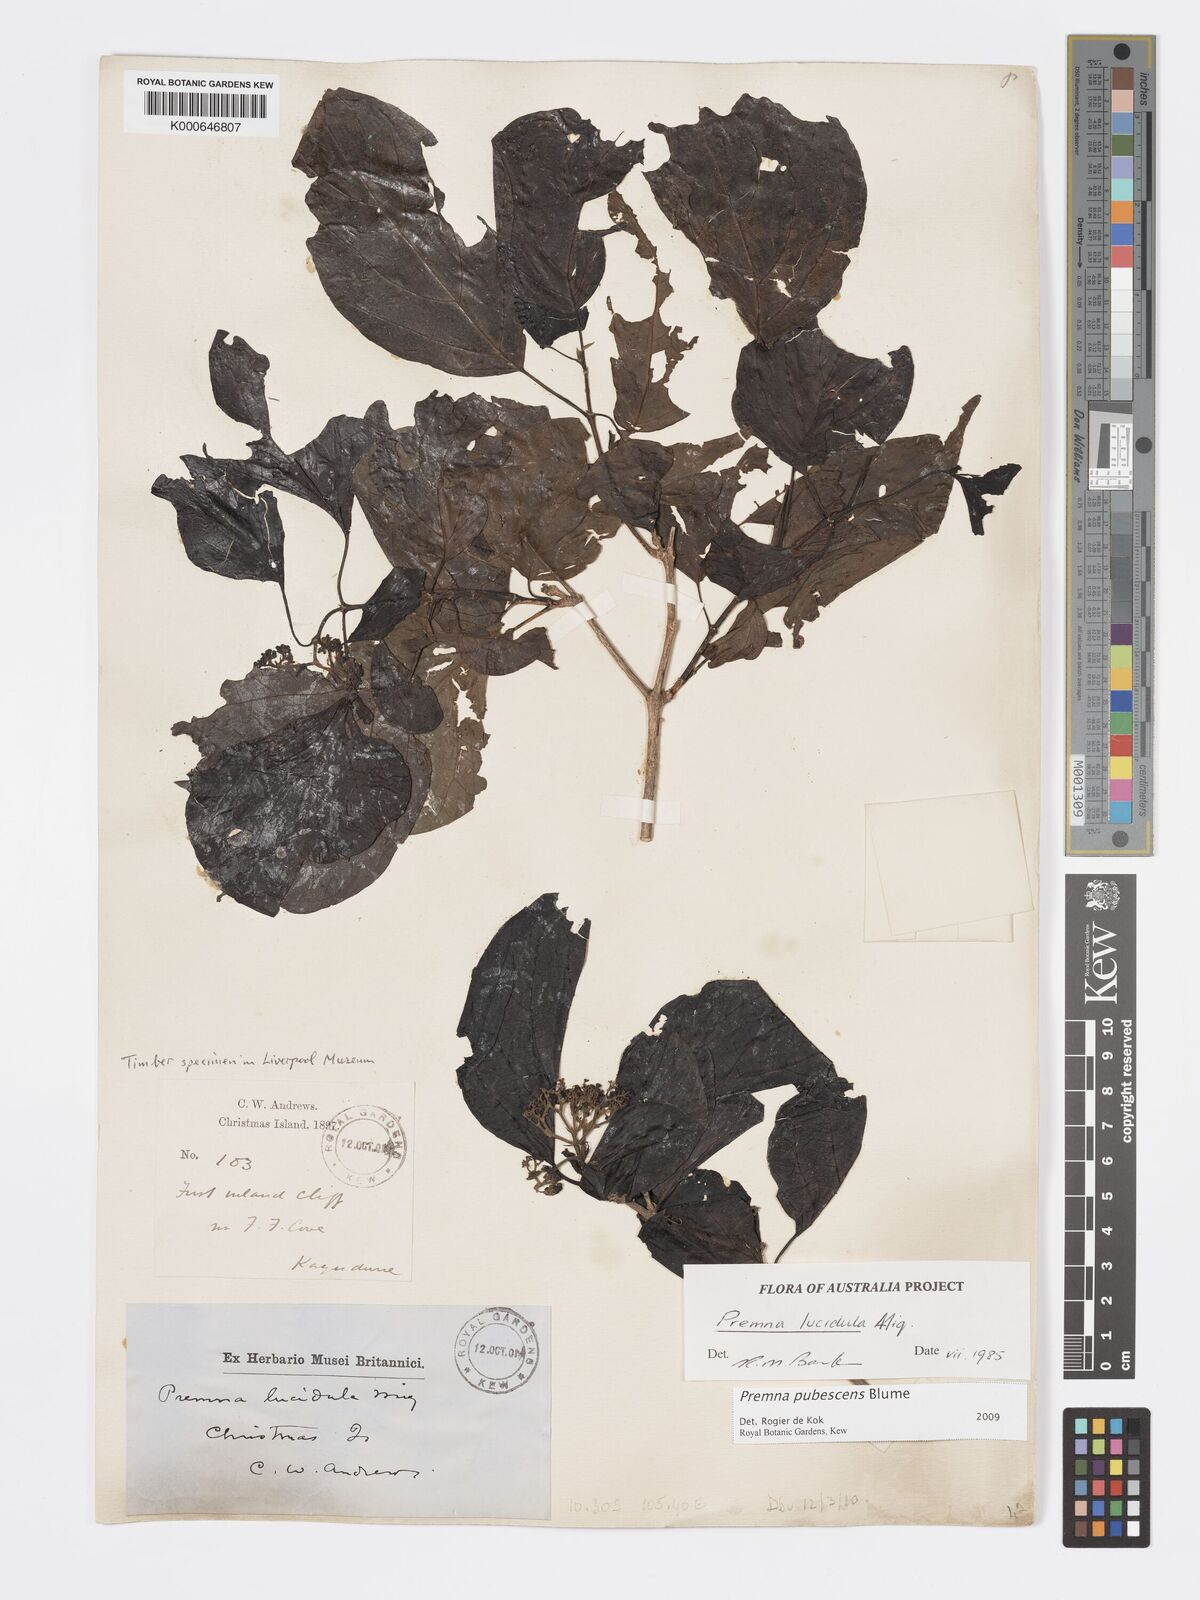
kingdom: Plantae
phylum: Tracheophyta
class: Magnoliopsida
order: Lamiales
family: Lamiaceae
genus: Premna
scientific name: Premna
